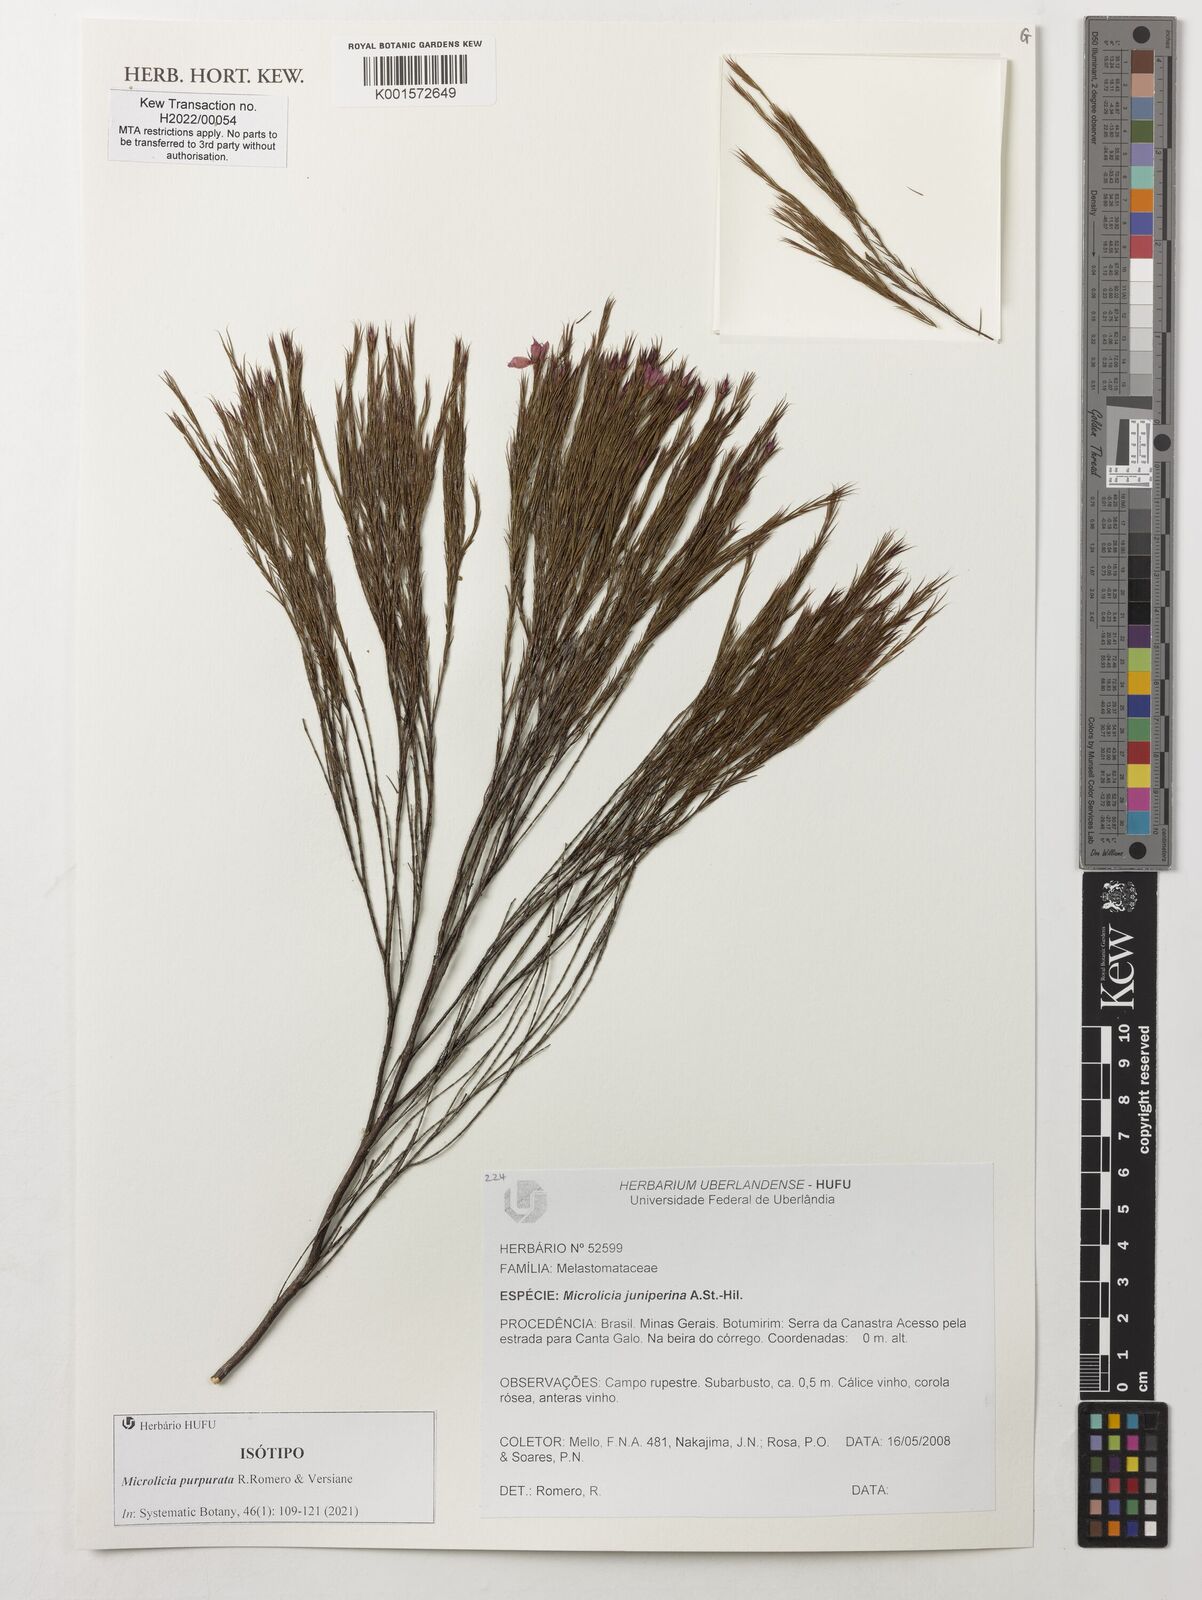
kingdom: Plantae
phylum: Tracheophyta
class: Magnoliopsida
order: Myrtales
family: Melastomataceae
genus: Microlicia
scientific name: Microlicia
